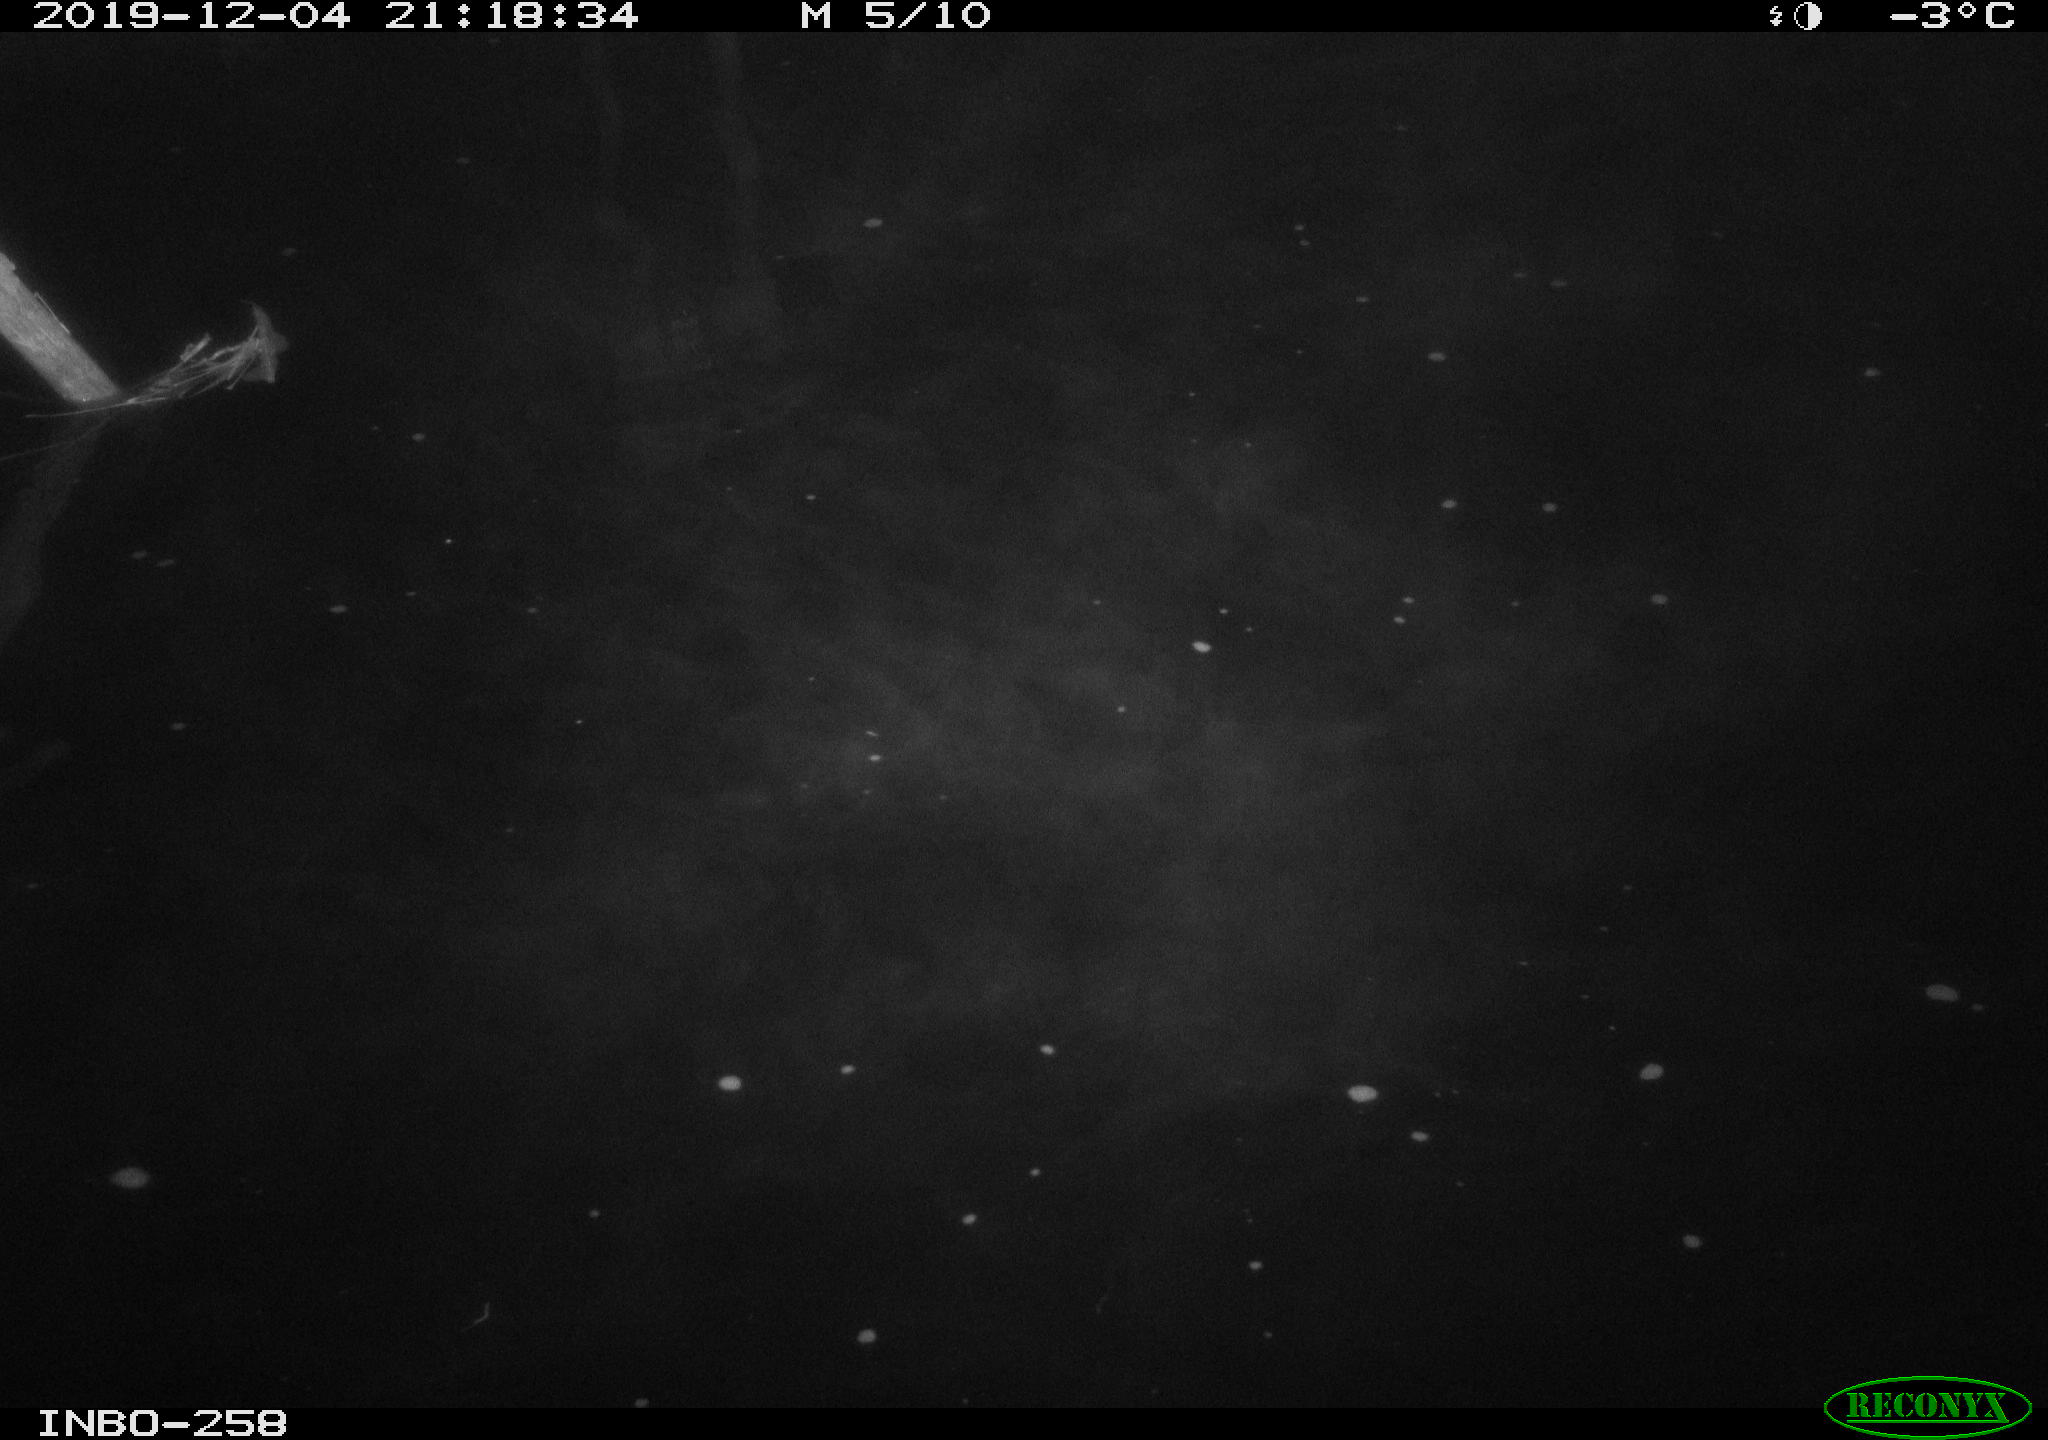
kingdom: Animalia
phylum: Chordata
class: Aves
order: Anseriformes
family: Anatidae
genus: Anas
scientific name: Anas platyrhynchos
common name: Mallard
